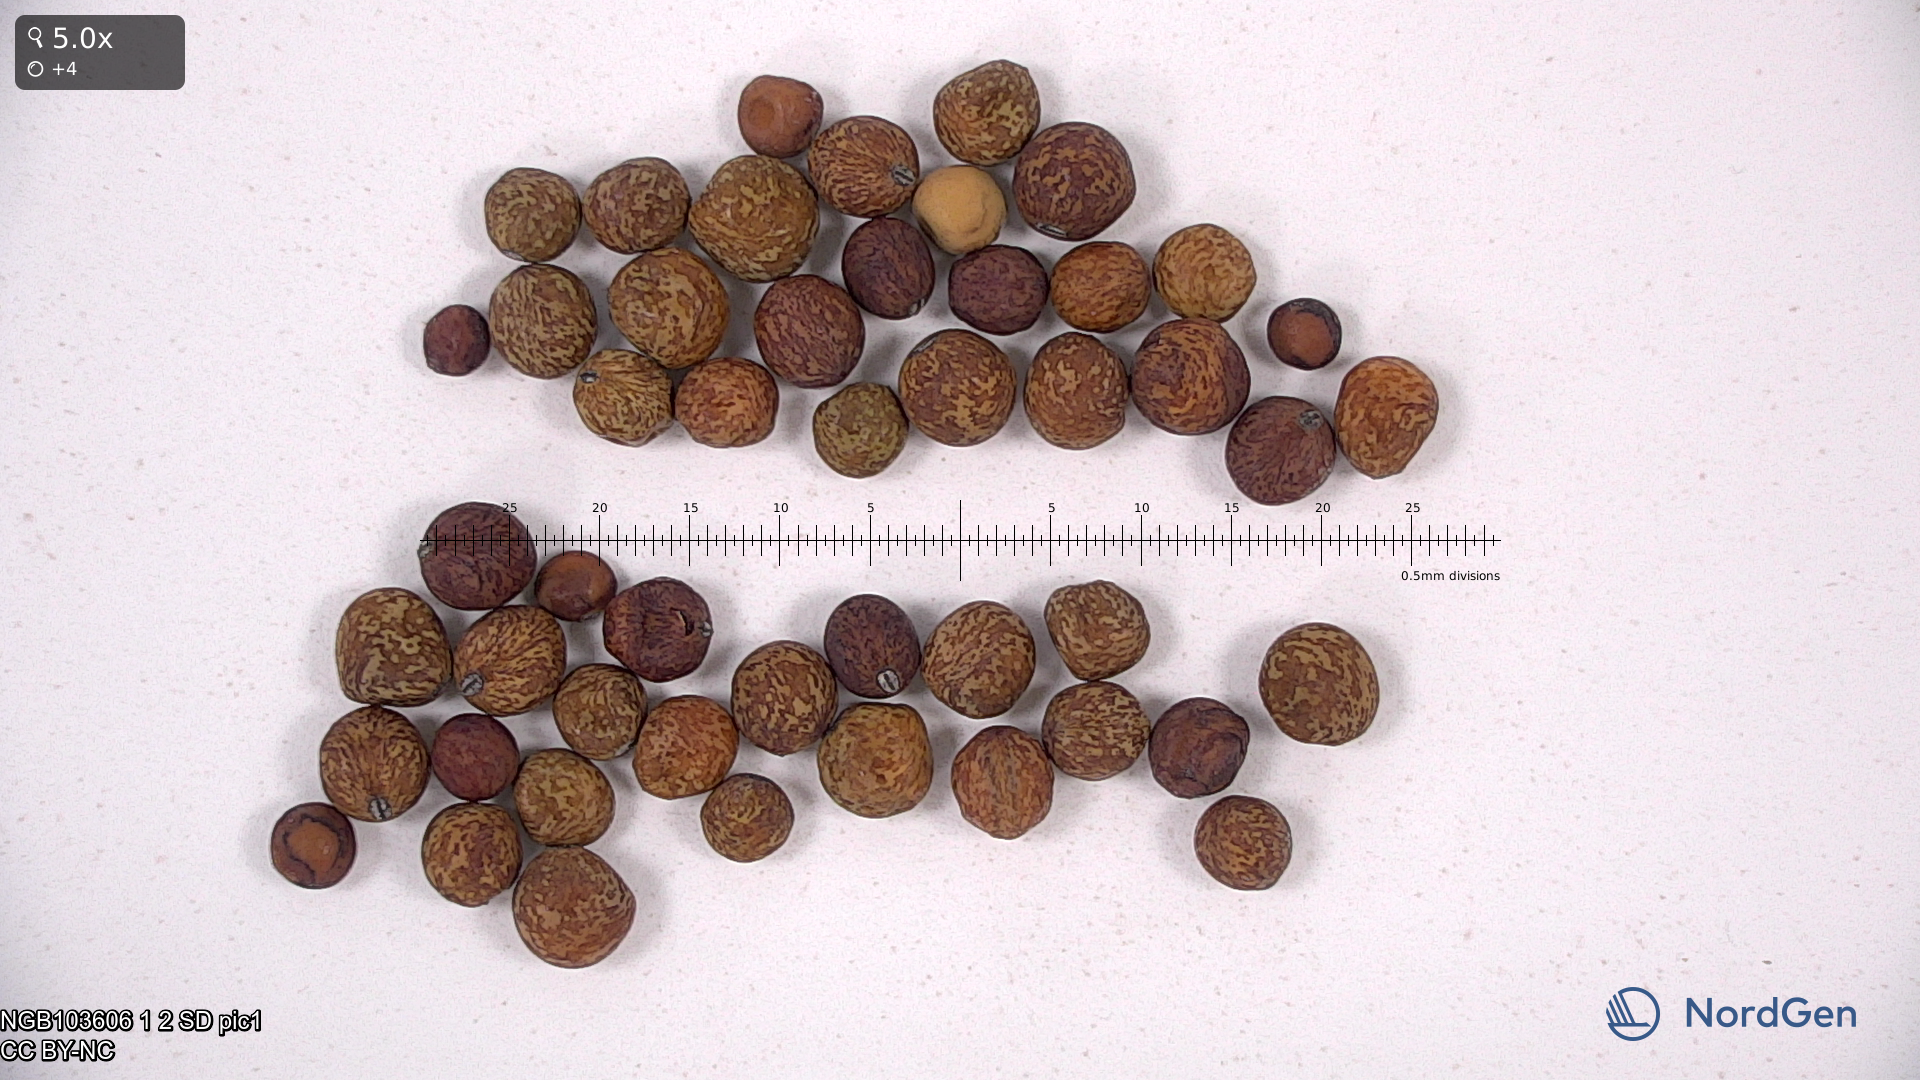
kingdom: Plantae
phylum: Tracheophyta
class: Magnoliopsida
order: Fabales
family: Fabaceae
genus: Lathyrus
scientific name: Lathyrus oleraceus
